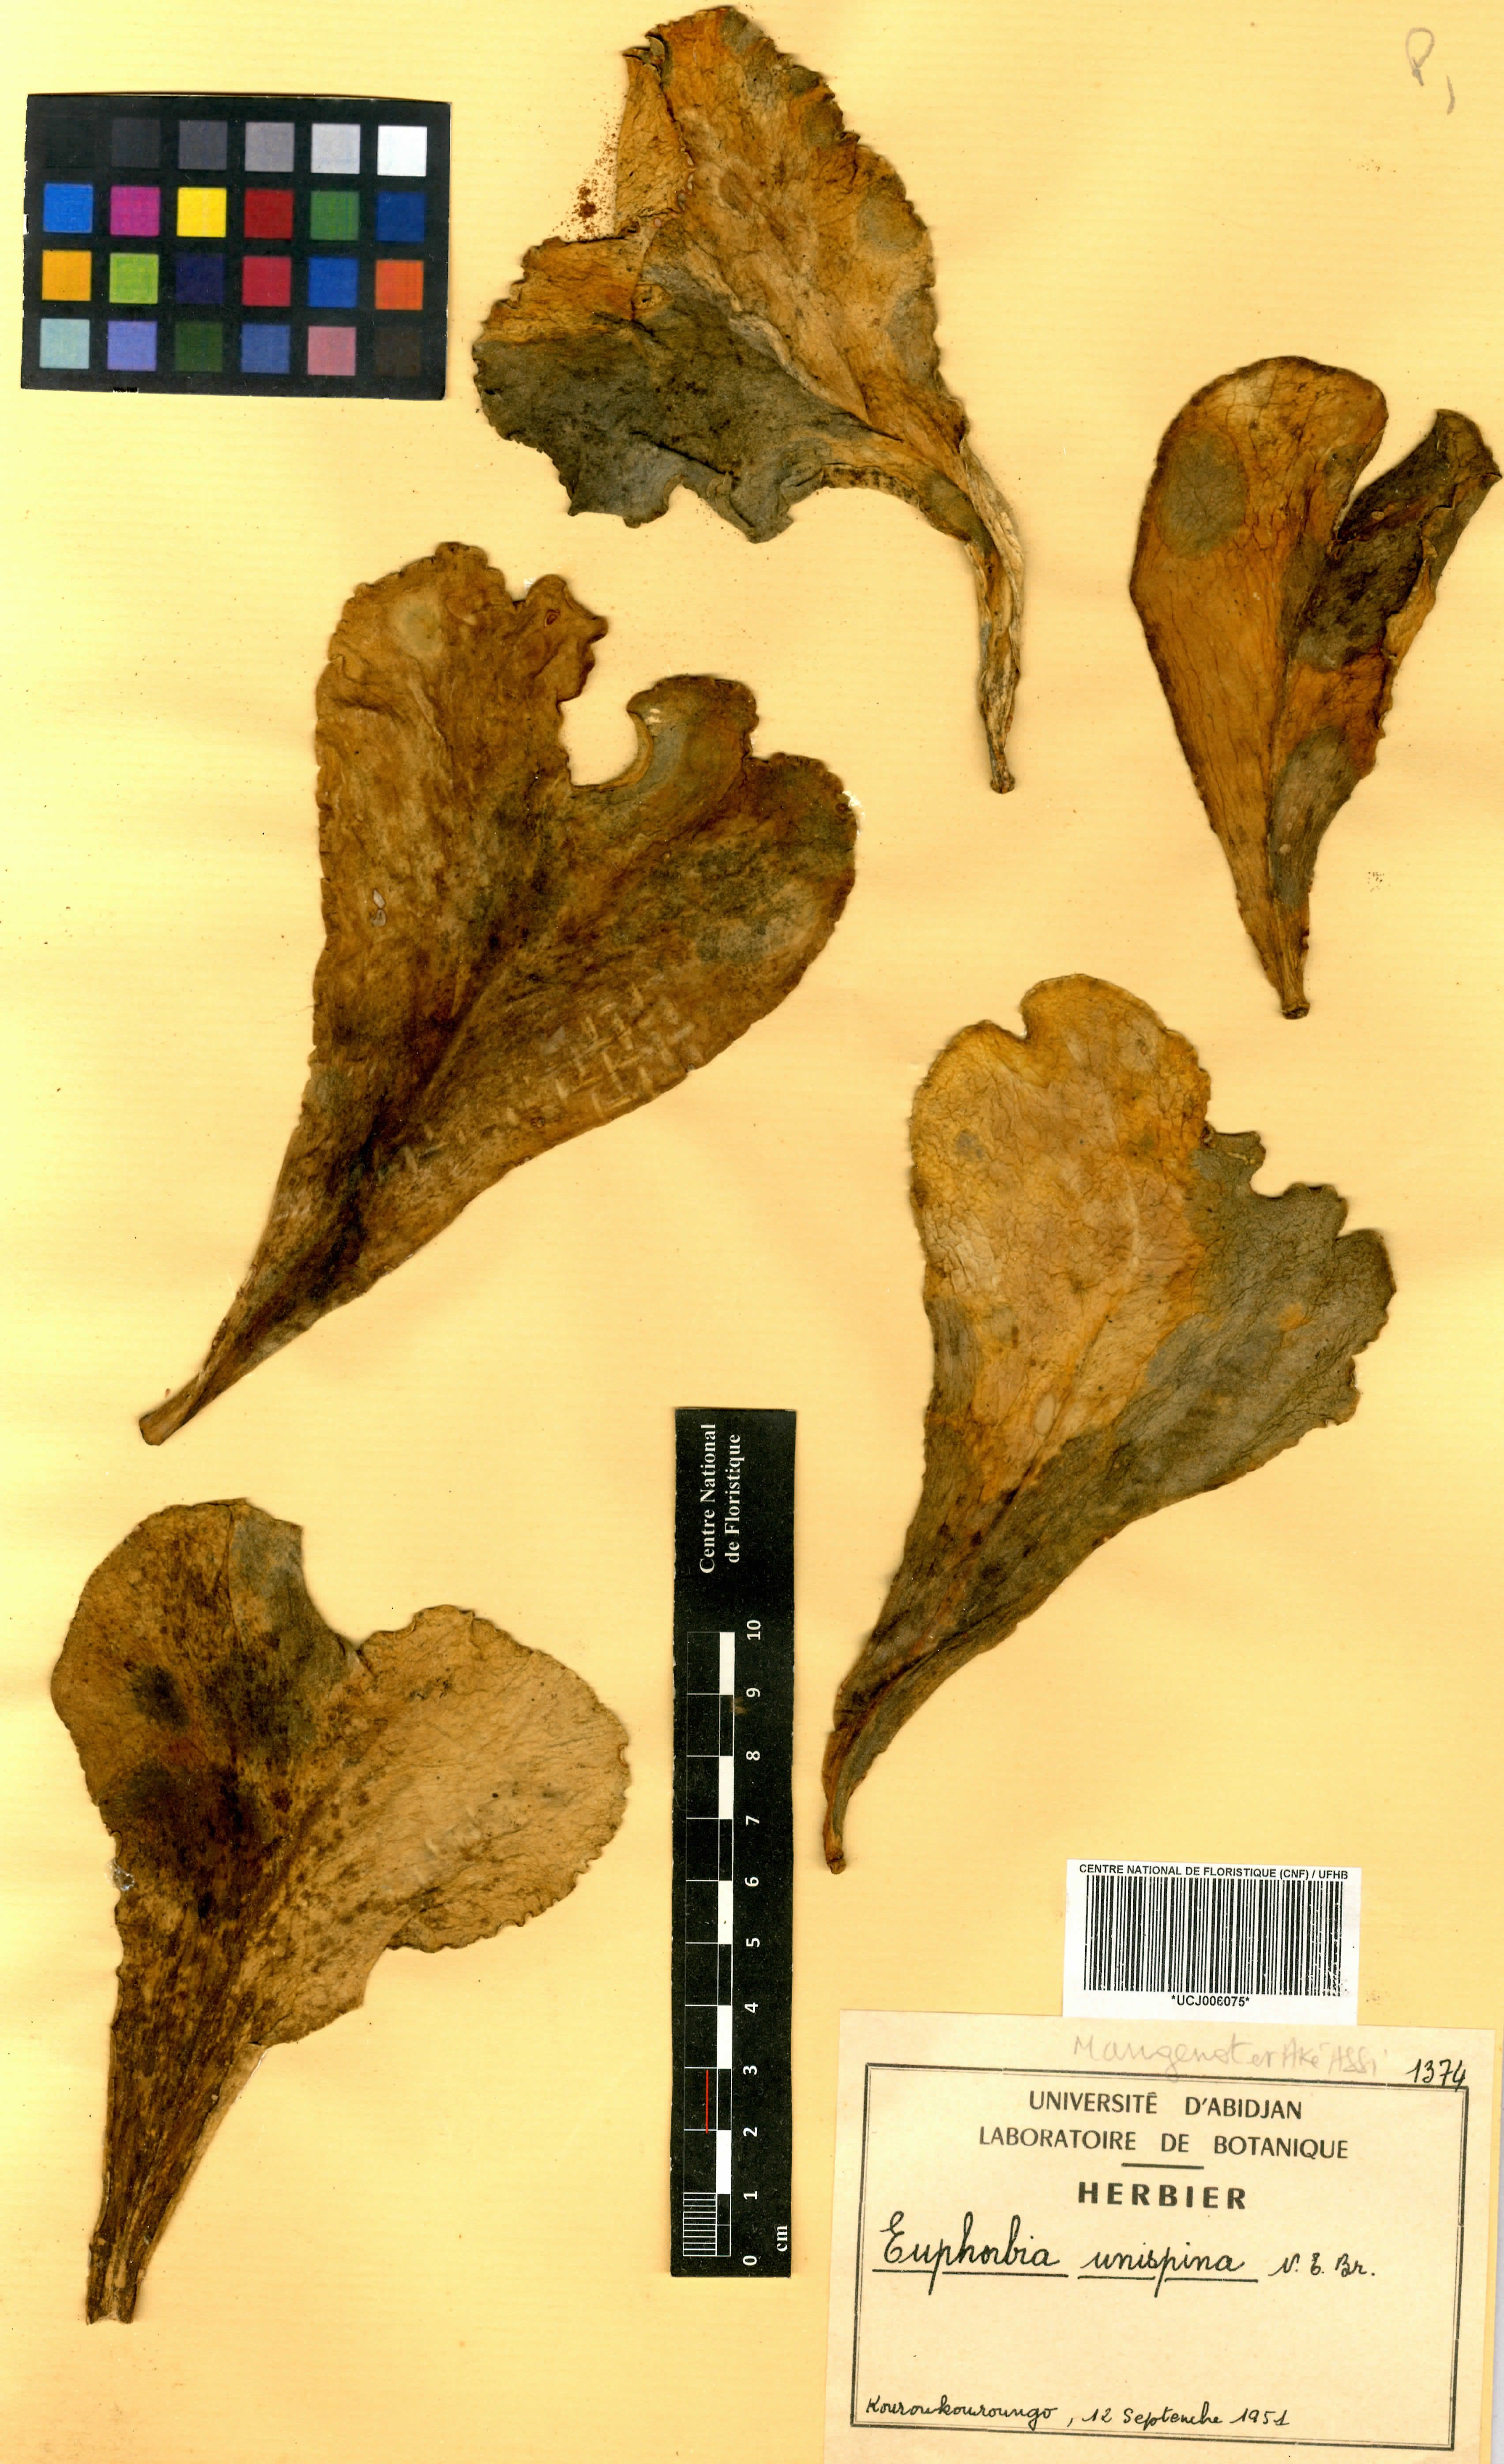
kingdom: Plantae
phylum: Tracheophyta
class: Magnoliopsida
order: Malpighiales
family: Euphorbiaceae
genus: Euphorbia
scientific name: Euphorbia unispina
